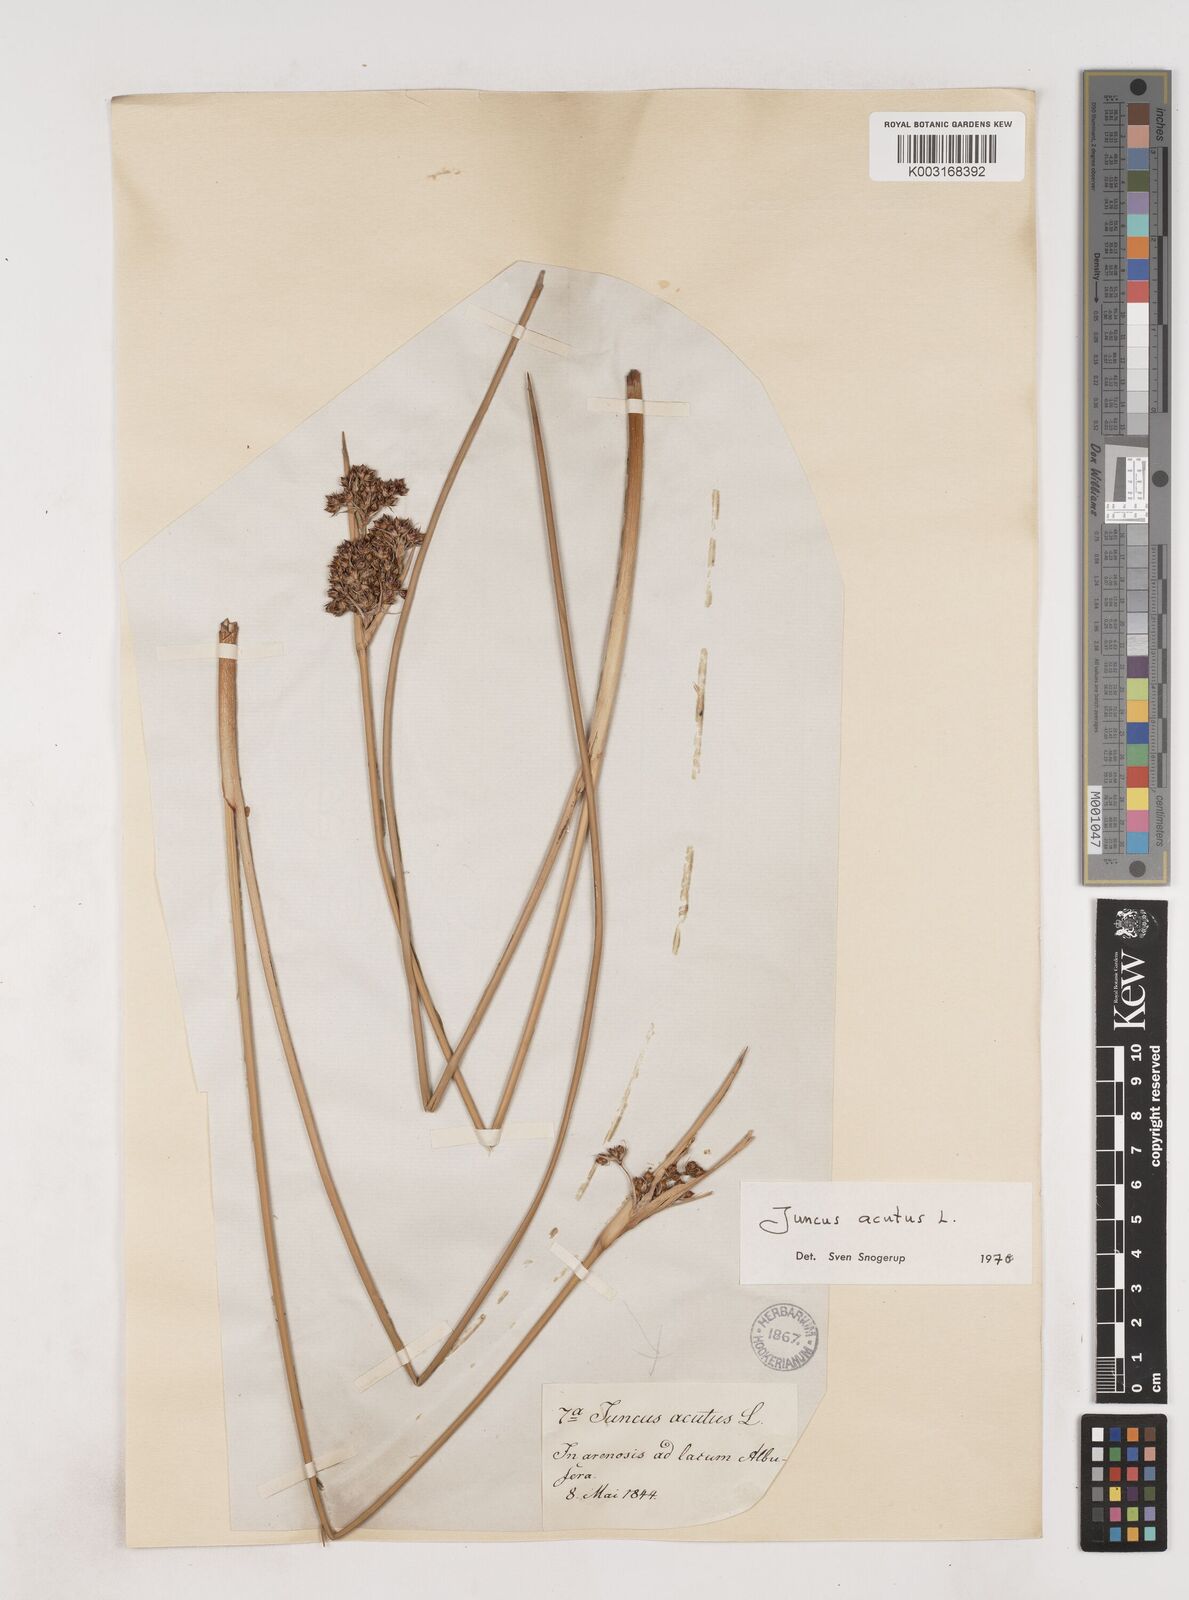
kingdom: Plantae
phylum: Tracheophyta
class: Liliopsida
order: Poales
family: Juncaceae
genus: Juncus
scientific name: Juncus acutus
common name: Sharp rush
